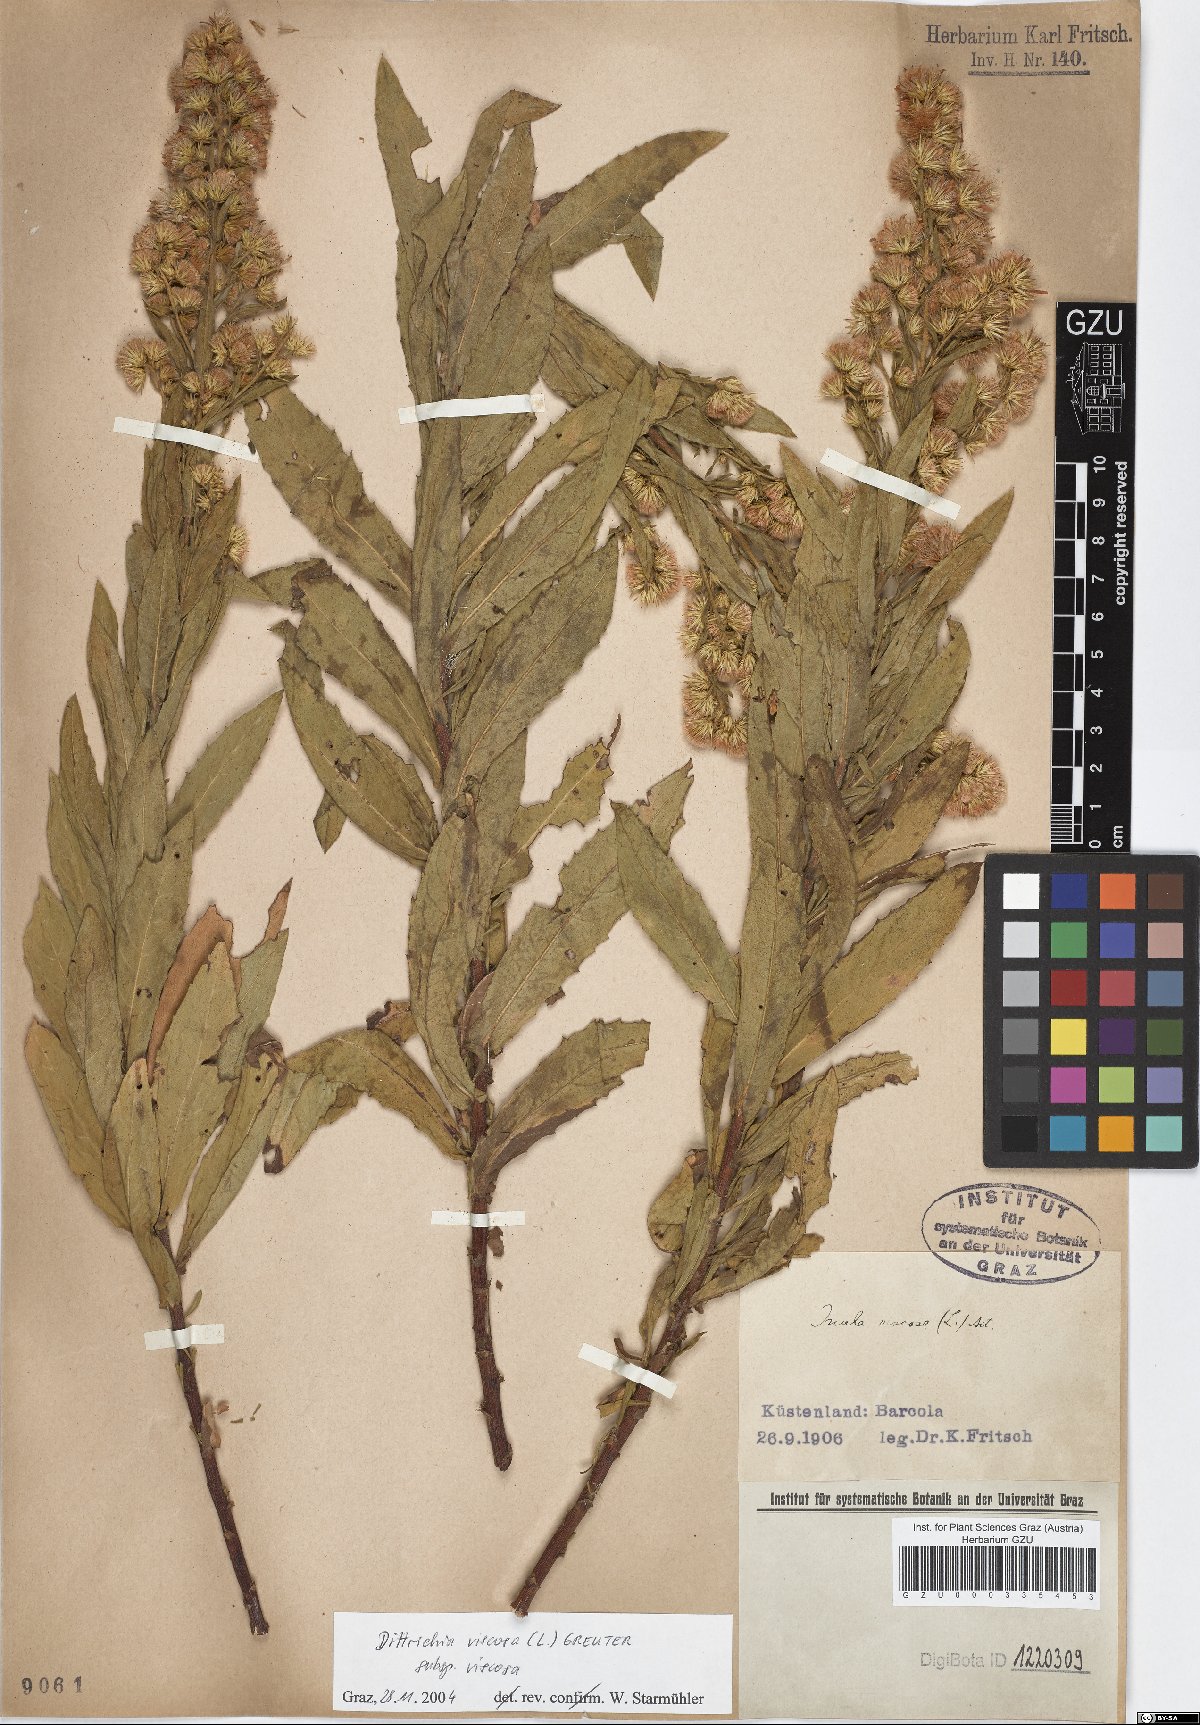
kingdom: Plantae
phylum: Tracheophyta
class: Magnoliopsida
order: Asterales
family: Asteraceae
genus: Dittrichia
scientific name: Dittrichia viscosa
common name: Woody fleabane
